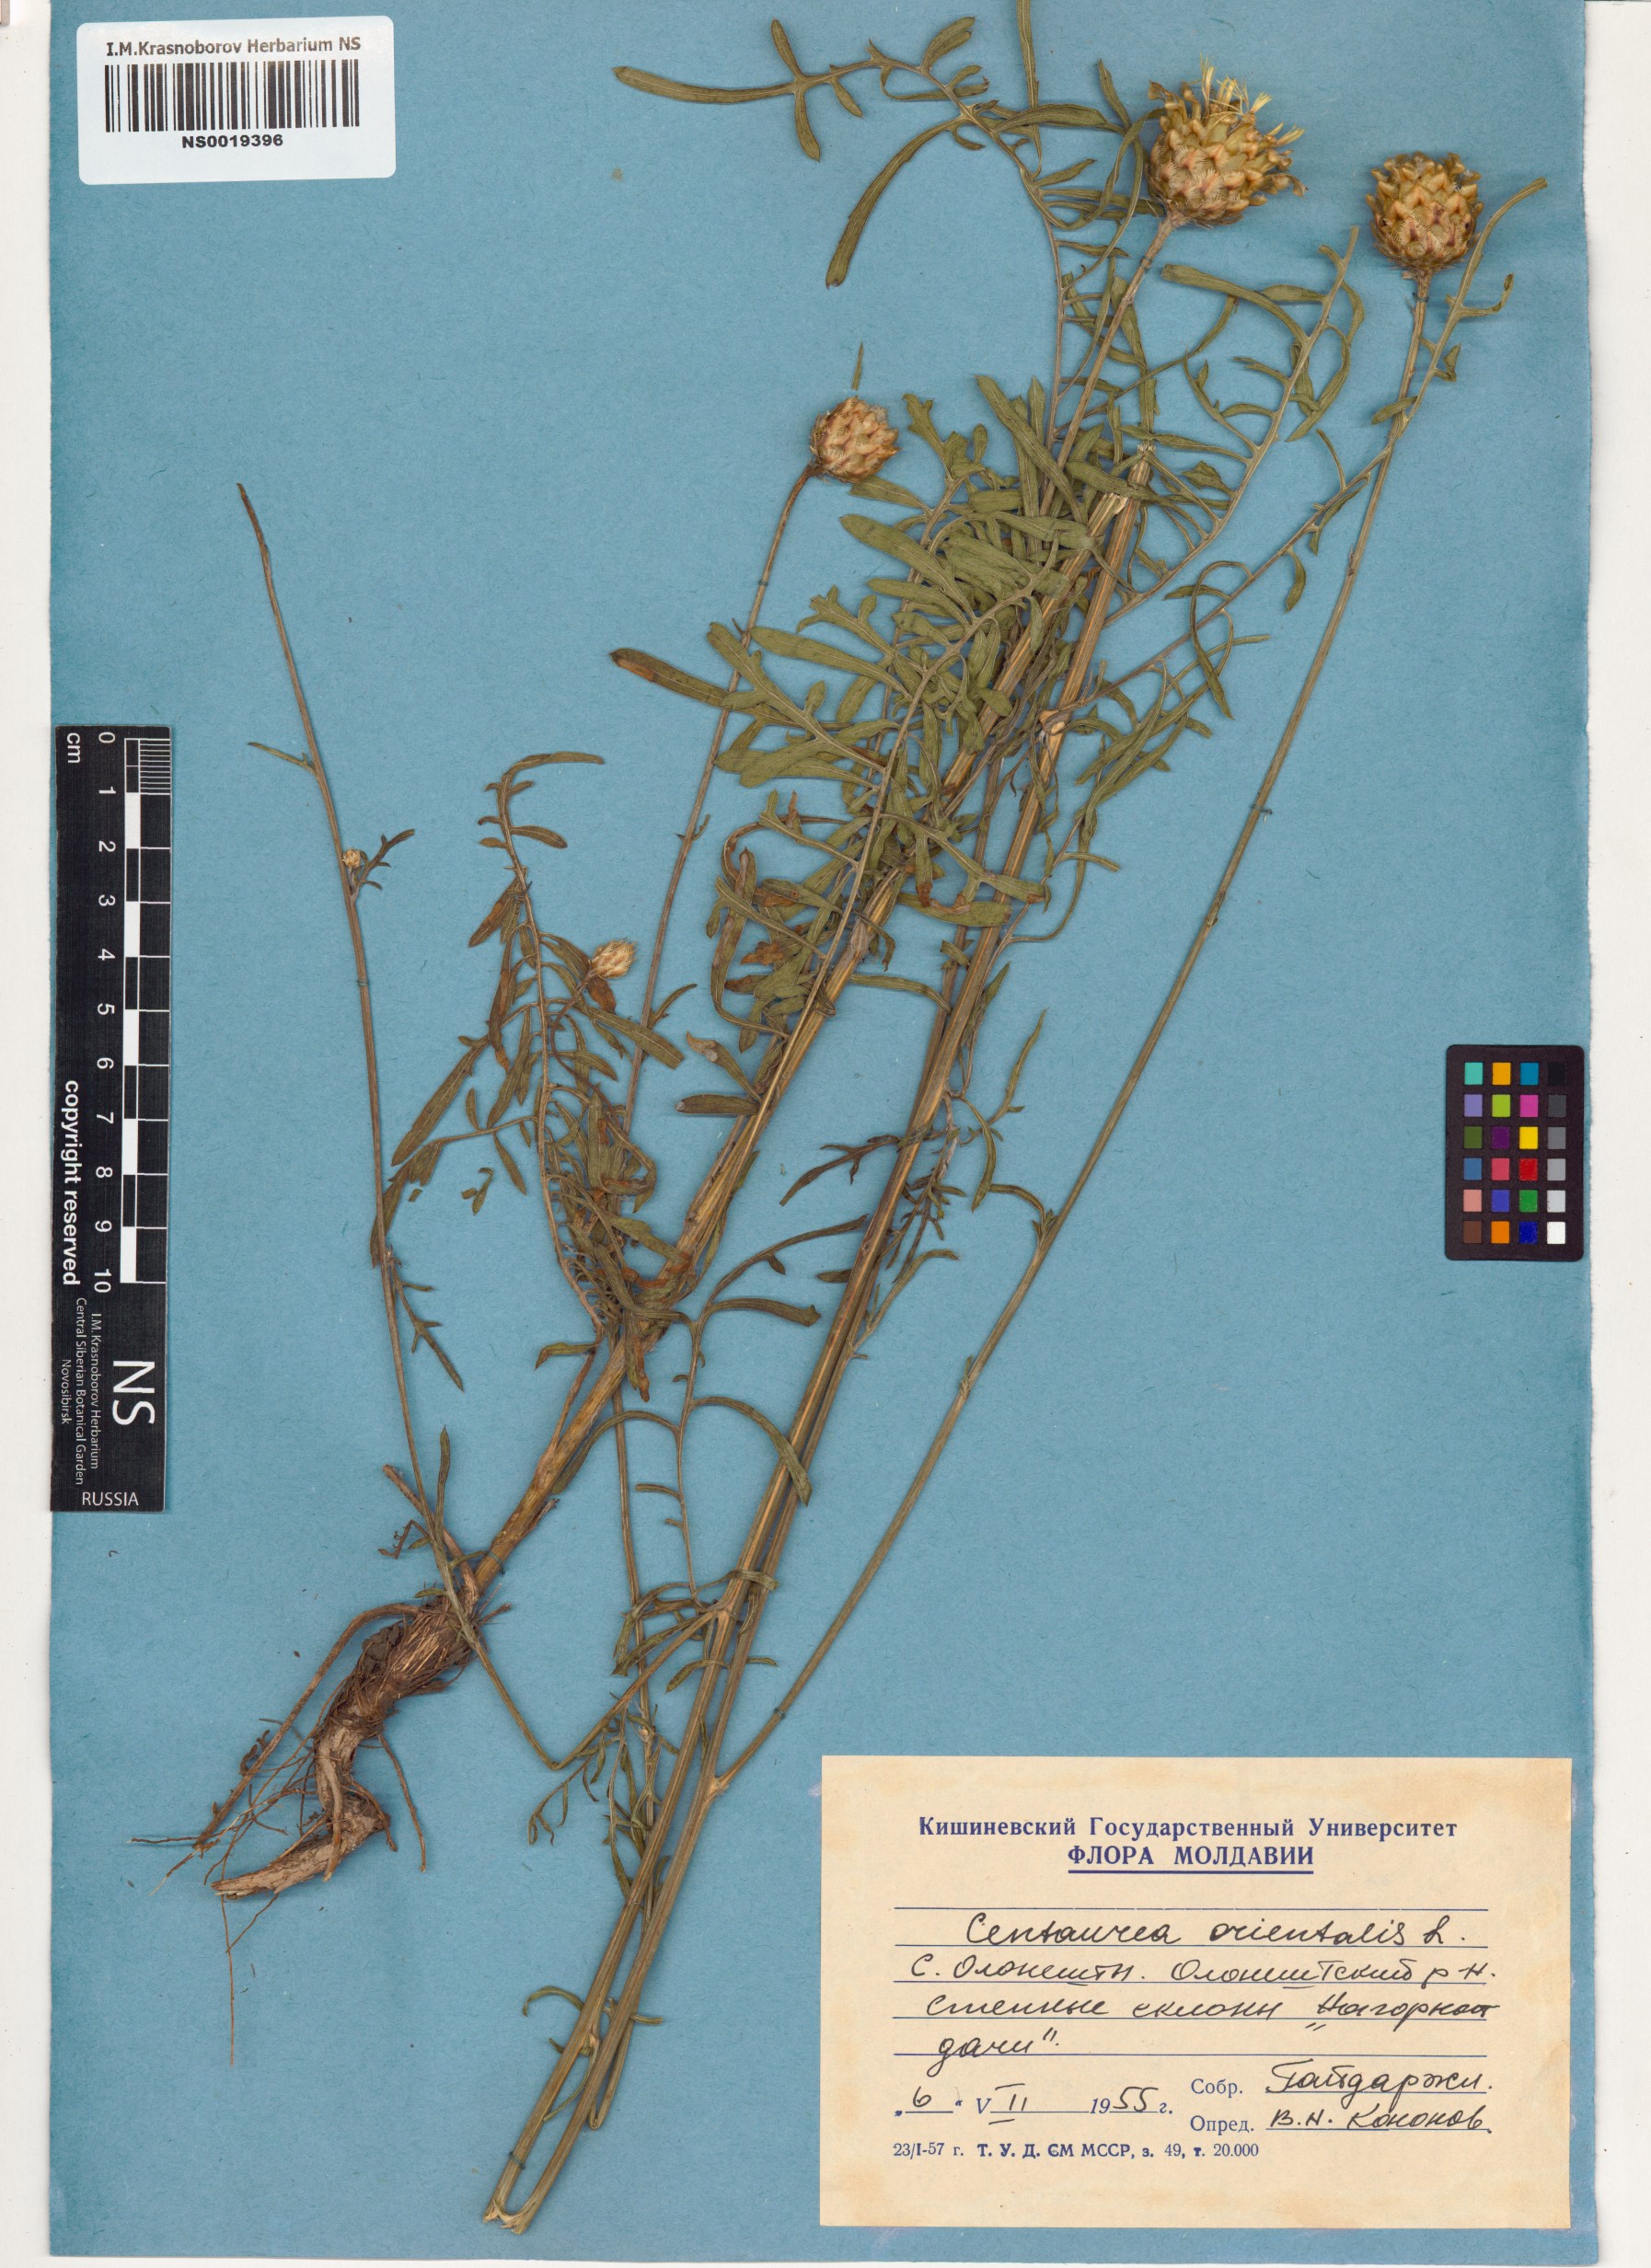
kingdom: Plantae
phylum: Tracheophyta
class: Magnoliopsida
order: Asterales
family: Asteraceae
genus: Centaurea
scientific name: Centaurea orientalis
